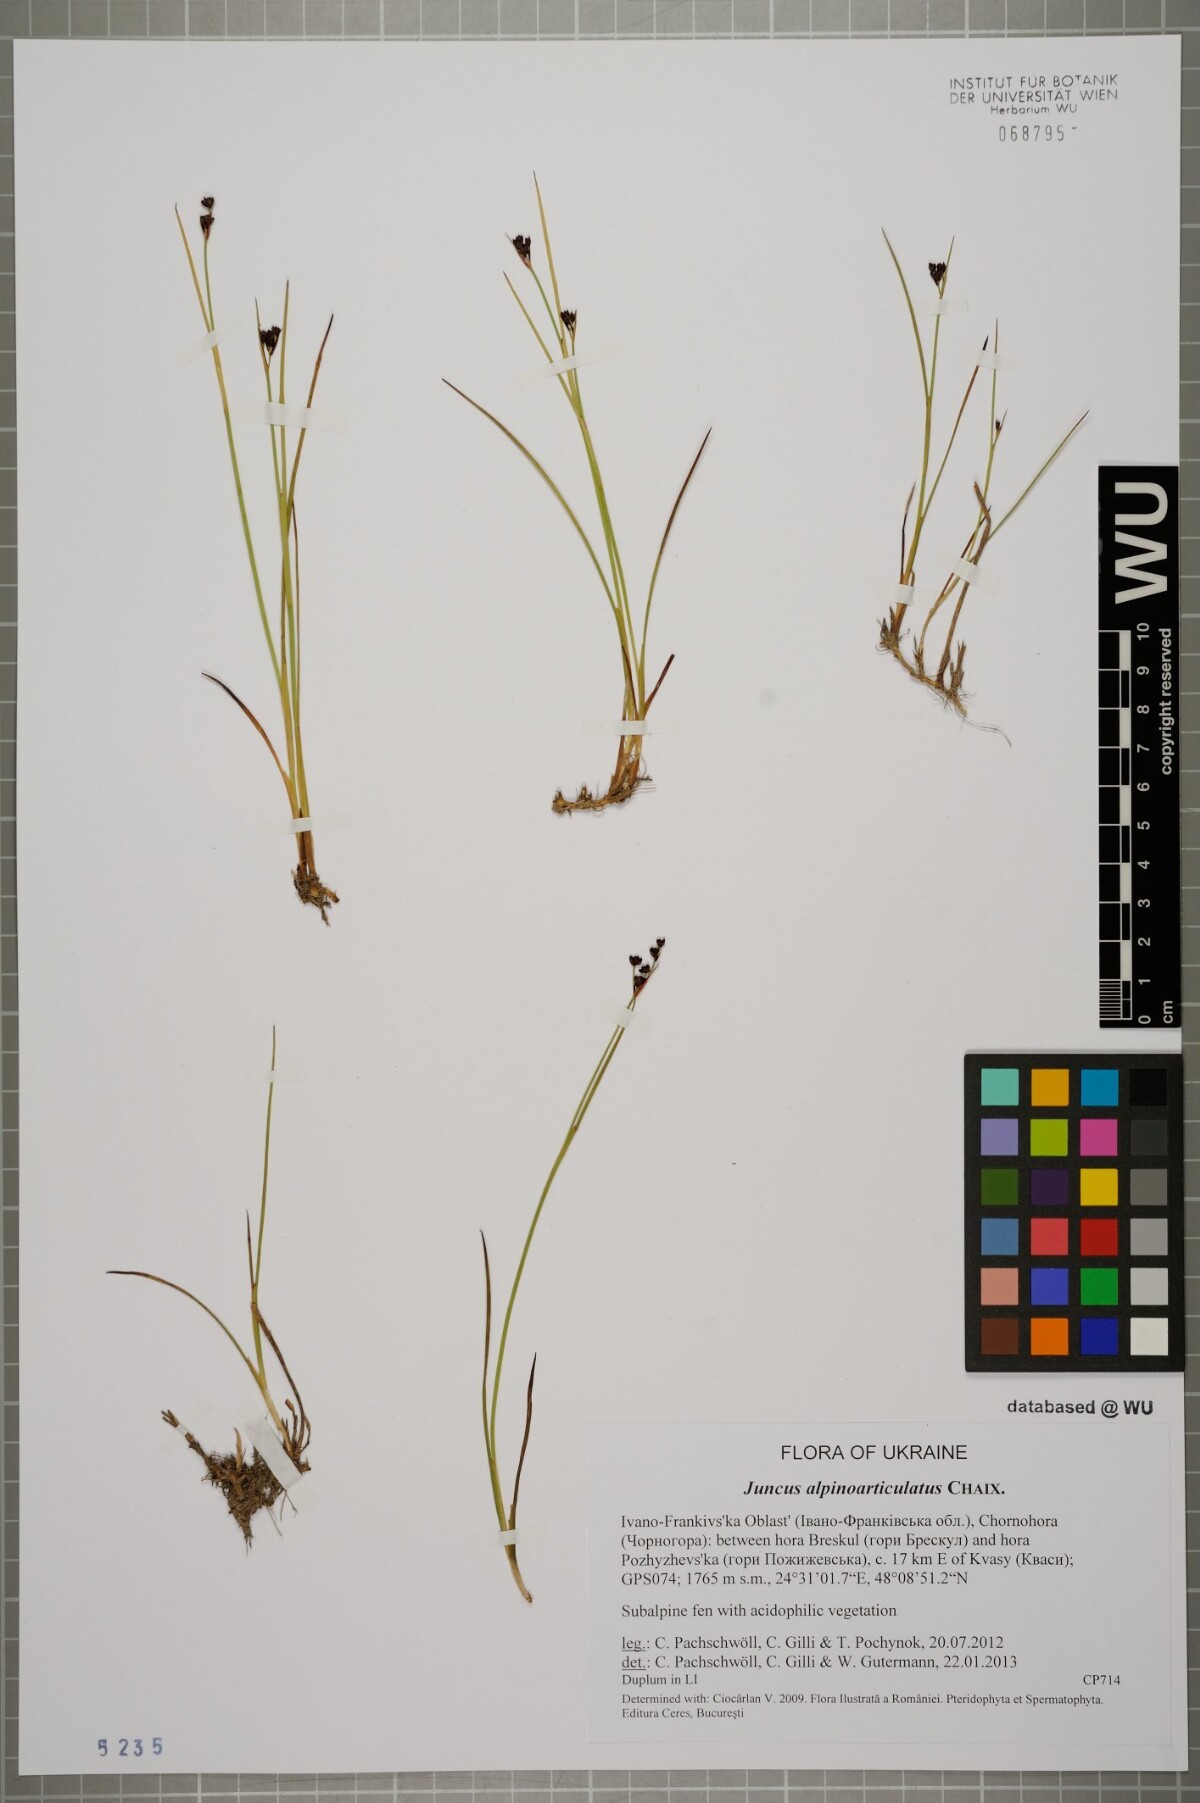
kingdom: Plantae
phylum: Tracheophyta
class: Liliopsida
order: Poales
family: Juncaceae
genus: Juncus
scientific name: Juncus alpinoarticulatus
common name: Alpine rush
